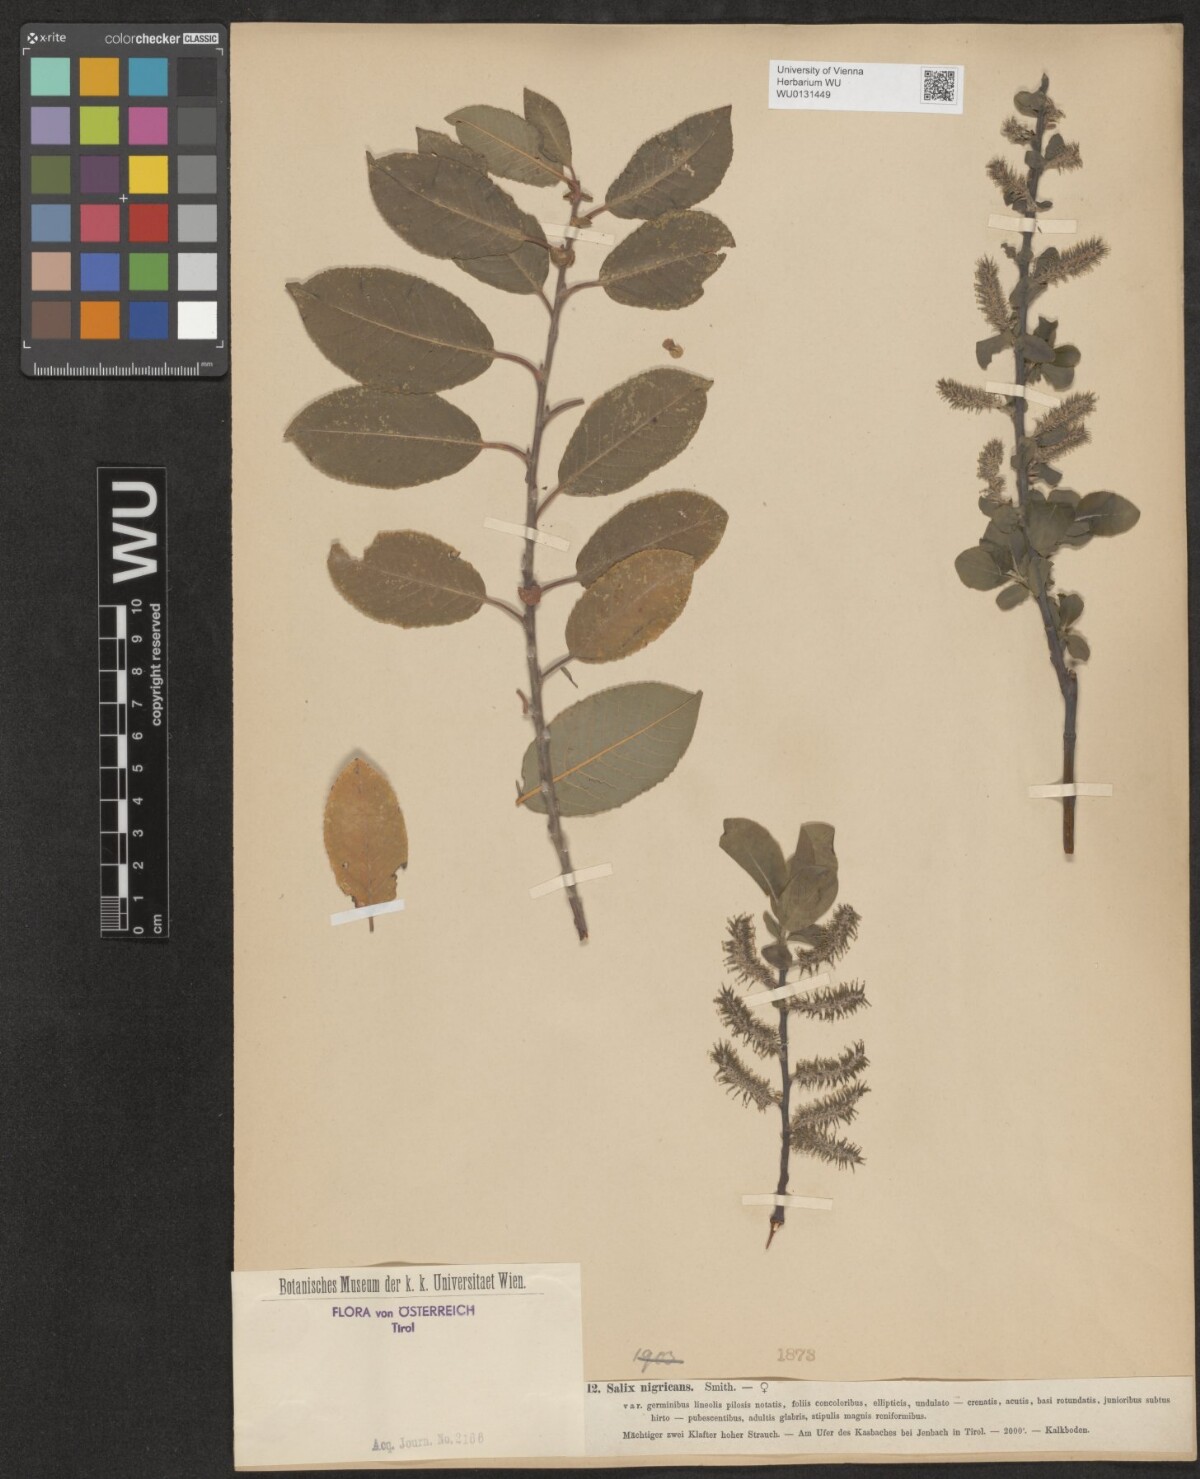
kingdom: Plantae
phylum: Tracheophyta
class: Magnoliopsida
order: Malpighiales
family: Salicaceae
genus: Salix
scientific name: Salix myrsinifolia
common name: Dark-leaved willow
